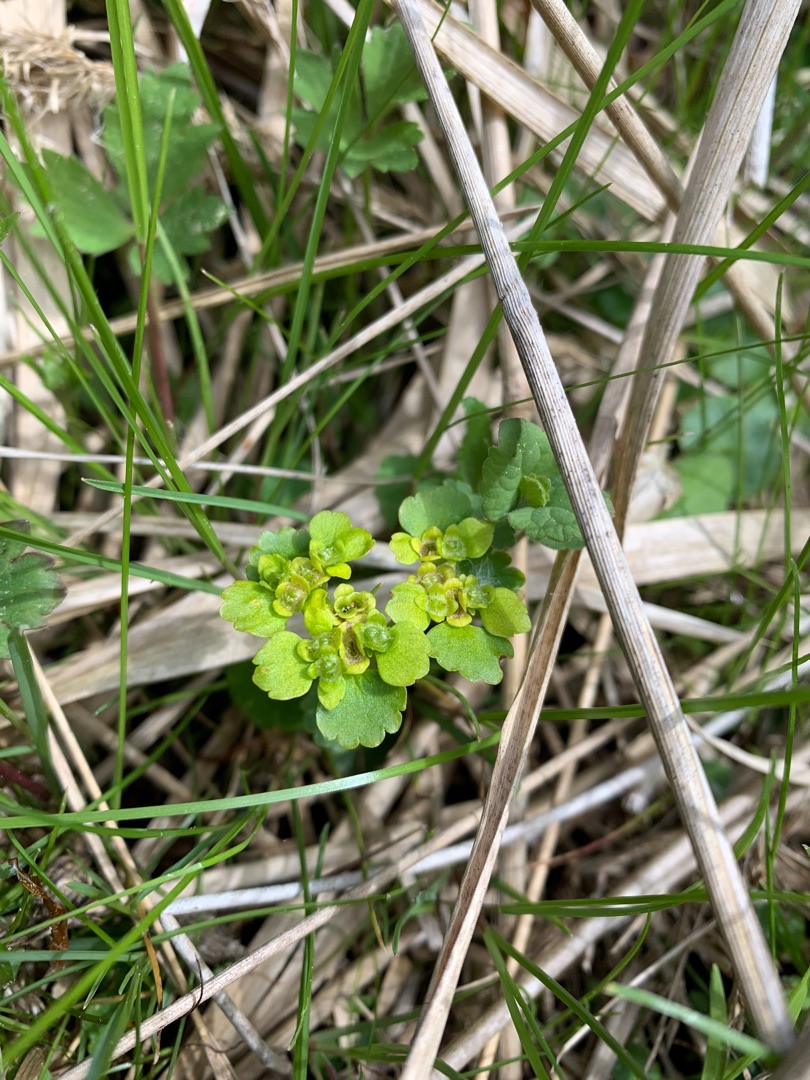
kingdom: Plantae
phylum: Tracheophyta
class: Magnoliopsida
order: Saxifragales
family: Saxifragaceae
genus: Chrysosplenium
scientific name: Chrysosplenium alternifolium
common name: Almindelig milturt
